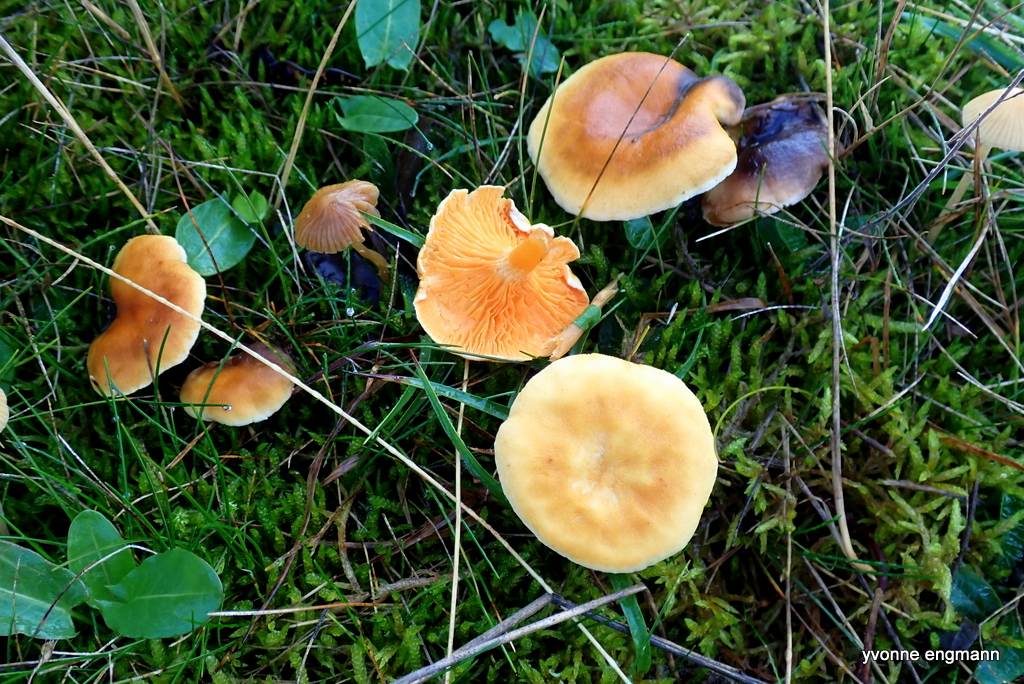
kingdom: Fungi
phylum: Basidiomycota
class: Agaricomycetes
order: Boletales
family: Hygrophoropsidaceae
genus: Hygrophoropsis
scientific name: Hygrophoropsis aurantiaca
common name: almindelig orangekantarel
